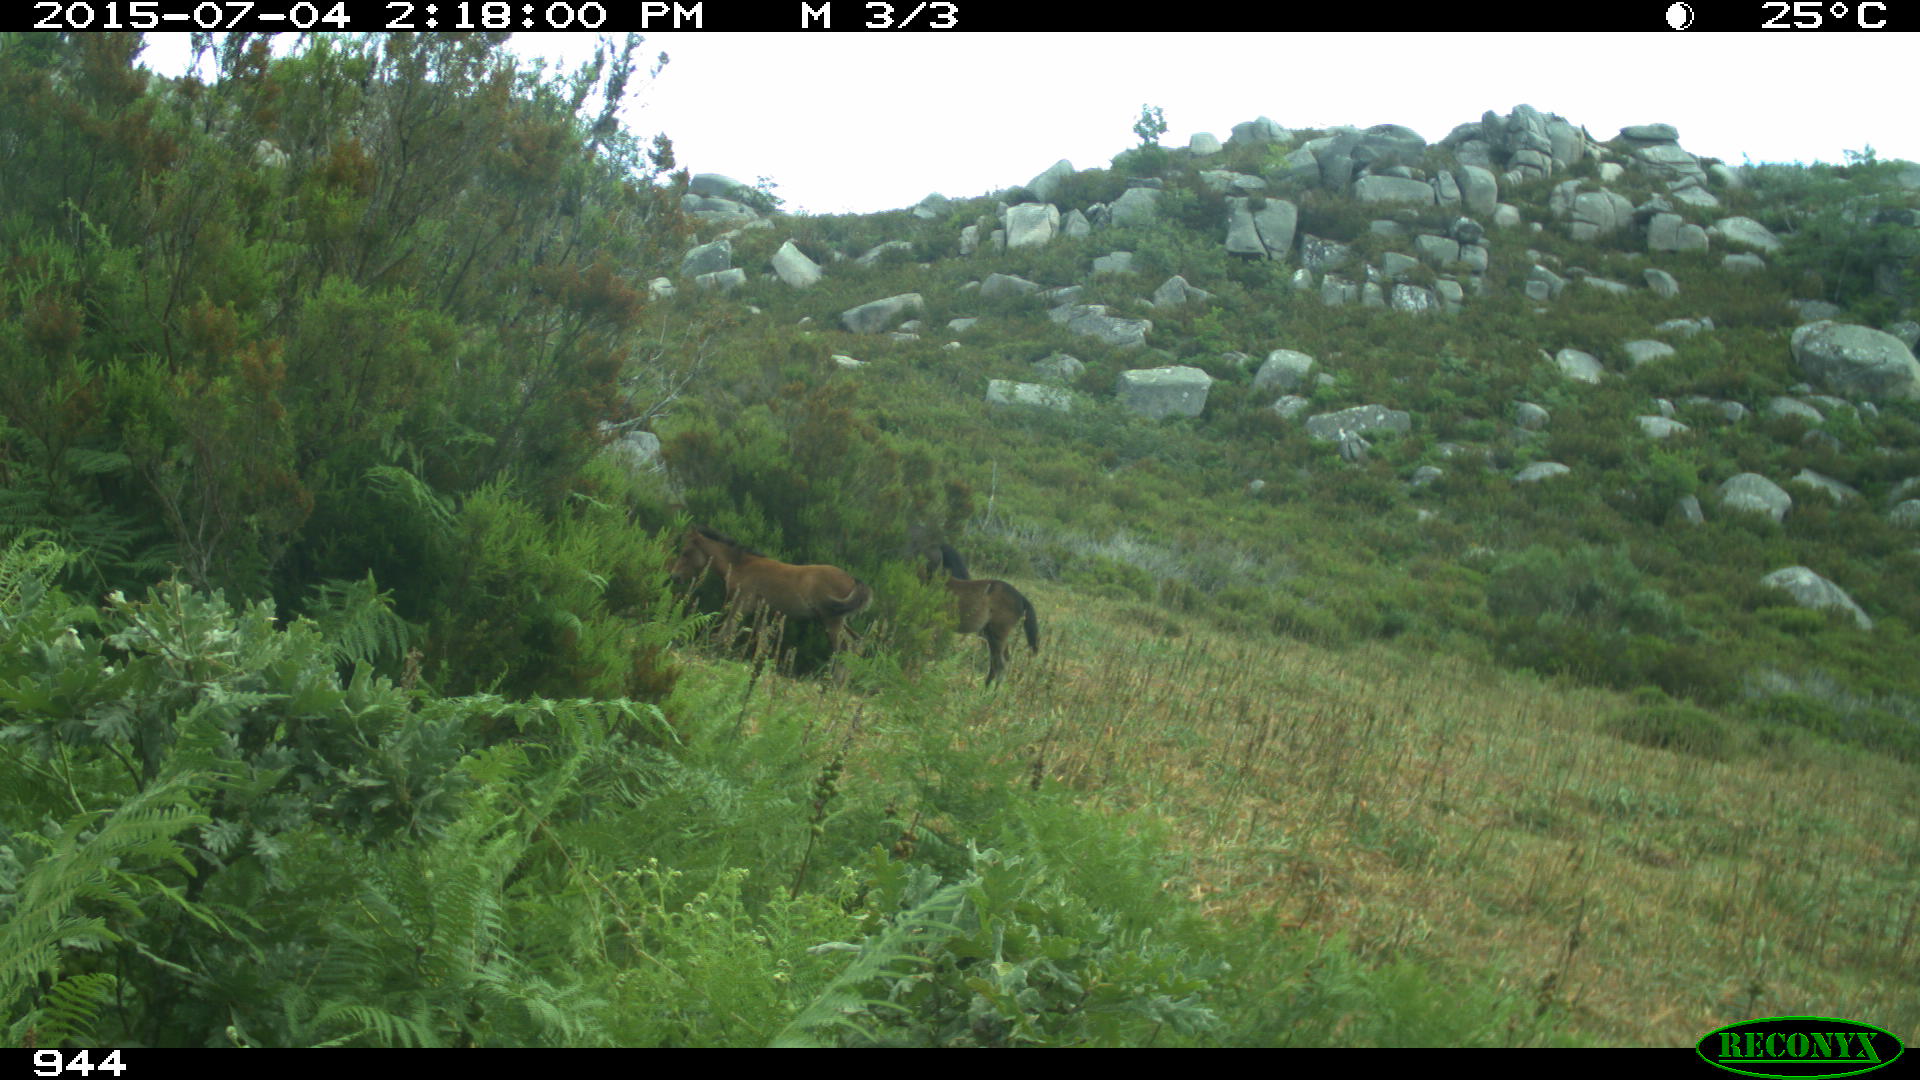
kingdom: Animalia
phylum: Chordata
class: Mammalia
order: Perissodactyla
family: Equidae
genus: Equus
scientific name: Equus caballus
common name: Horse
